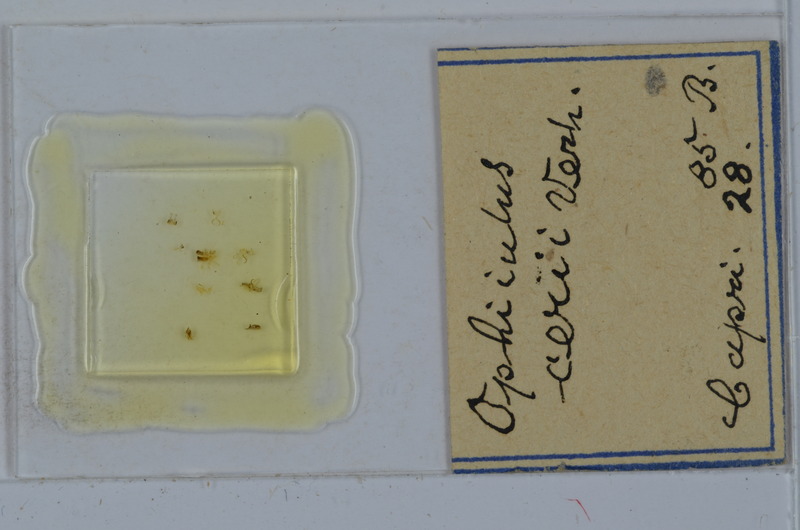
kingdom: Animalia
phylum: Arthropoda
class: Diplopoda
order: Julida
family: Julidae
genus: Ophyiulus
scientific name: Ophyiulus cerii
